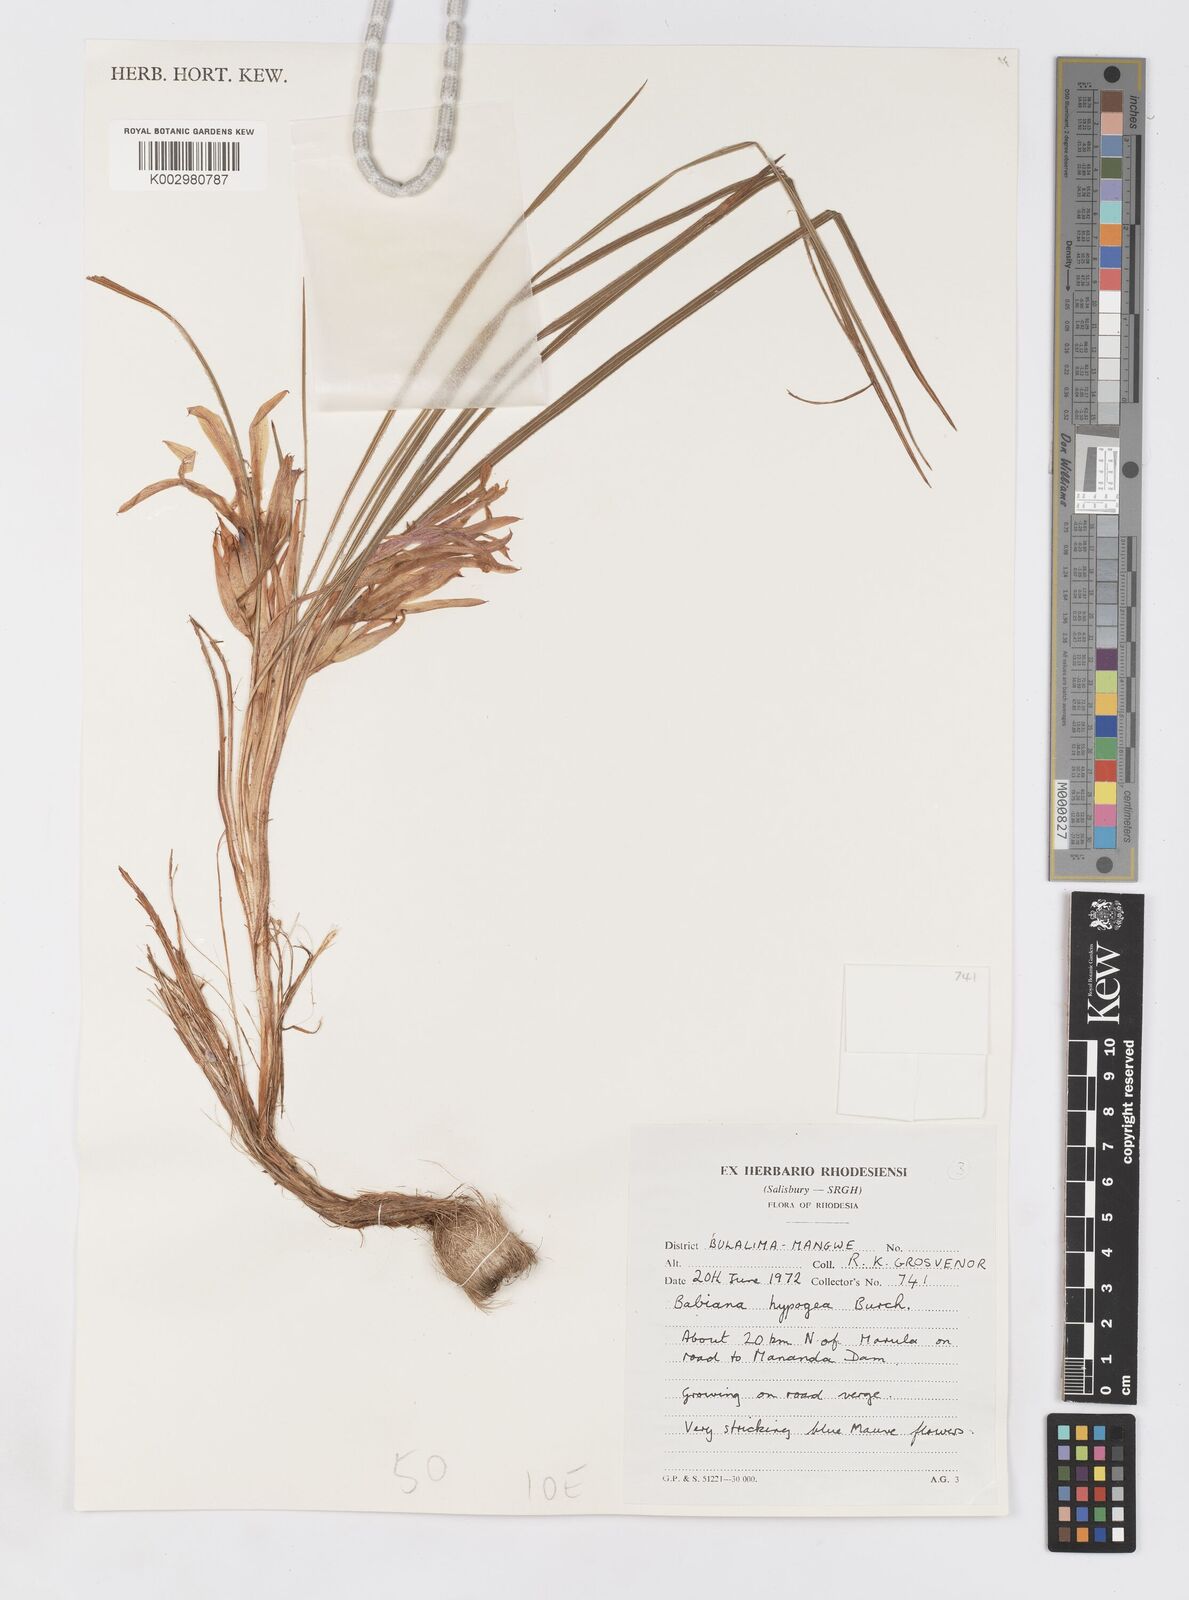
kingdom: Plantae
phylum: Tracheophyta
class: Liliopsida
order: Asparagales
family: Iridaceae
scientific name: Iridaceae
